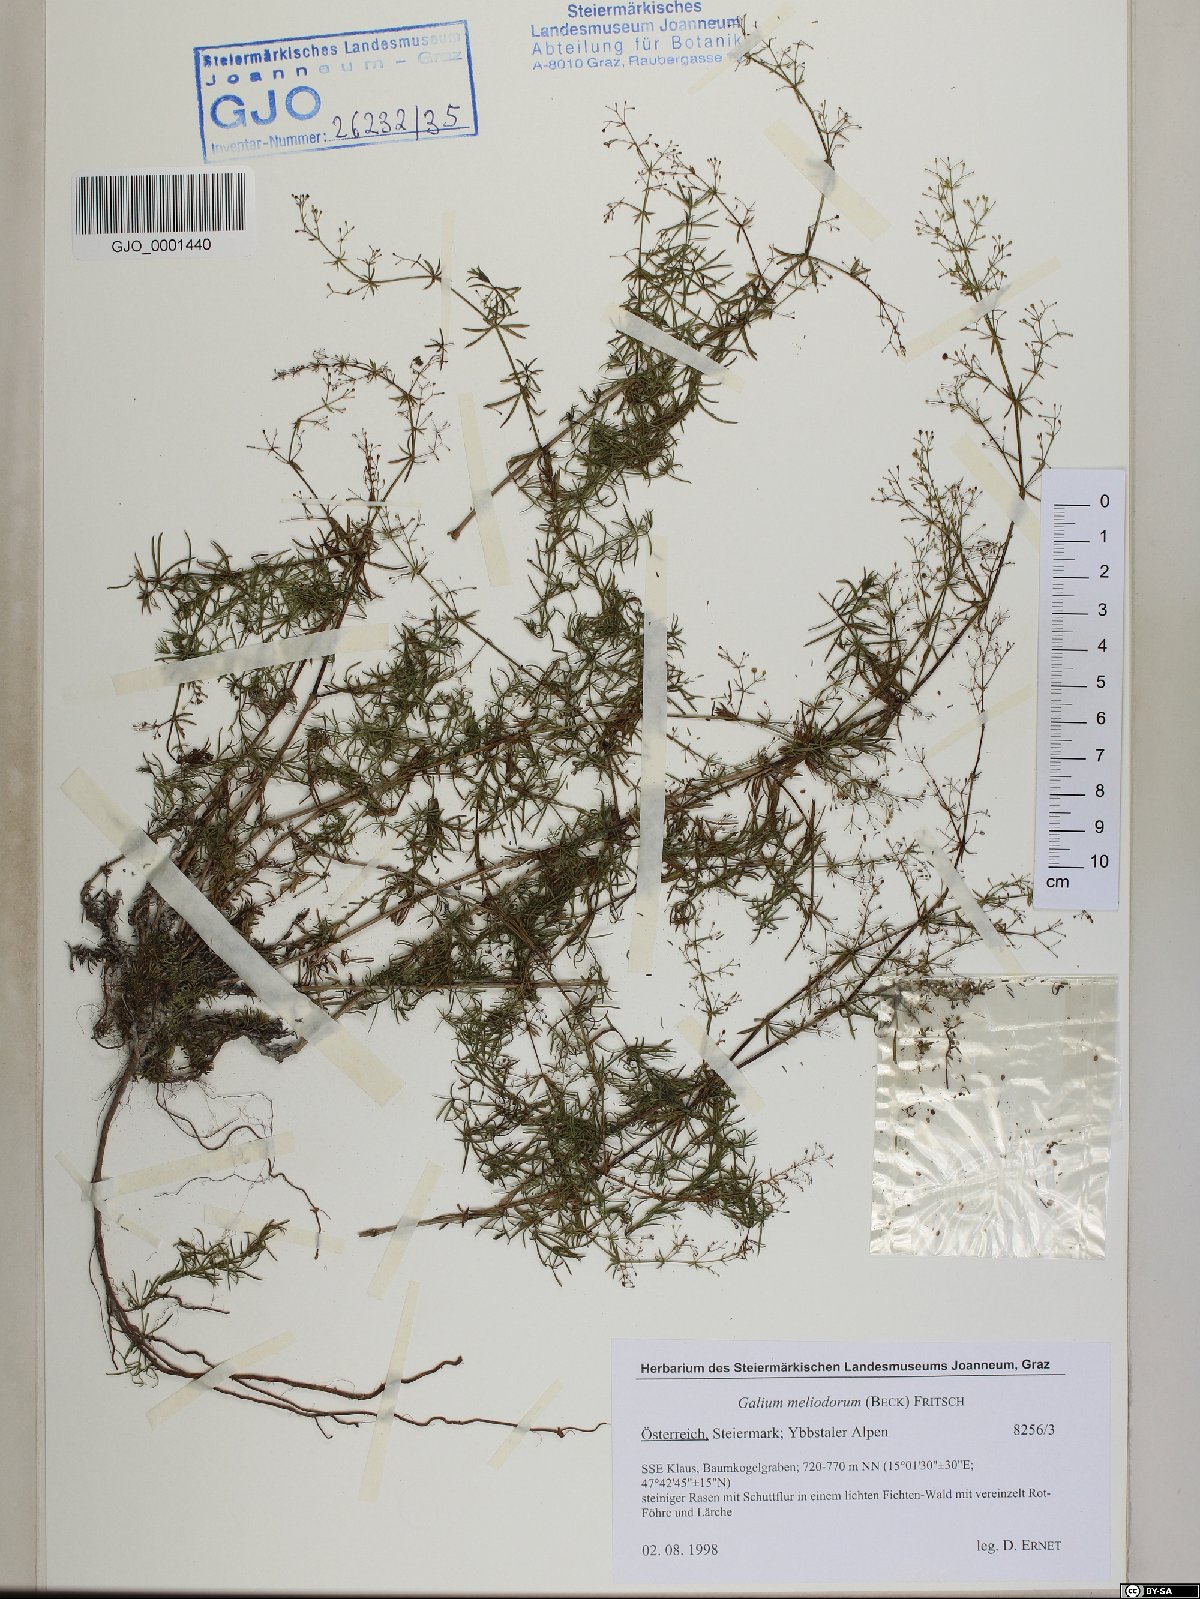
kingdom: Plantae
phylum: Tracheophyta
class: Magnoliopsida
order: Gentianales
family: Rubiaceae
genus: Galium
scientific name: Galium meliodorum
